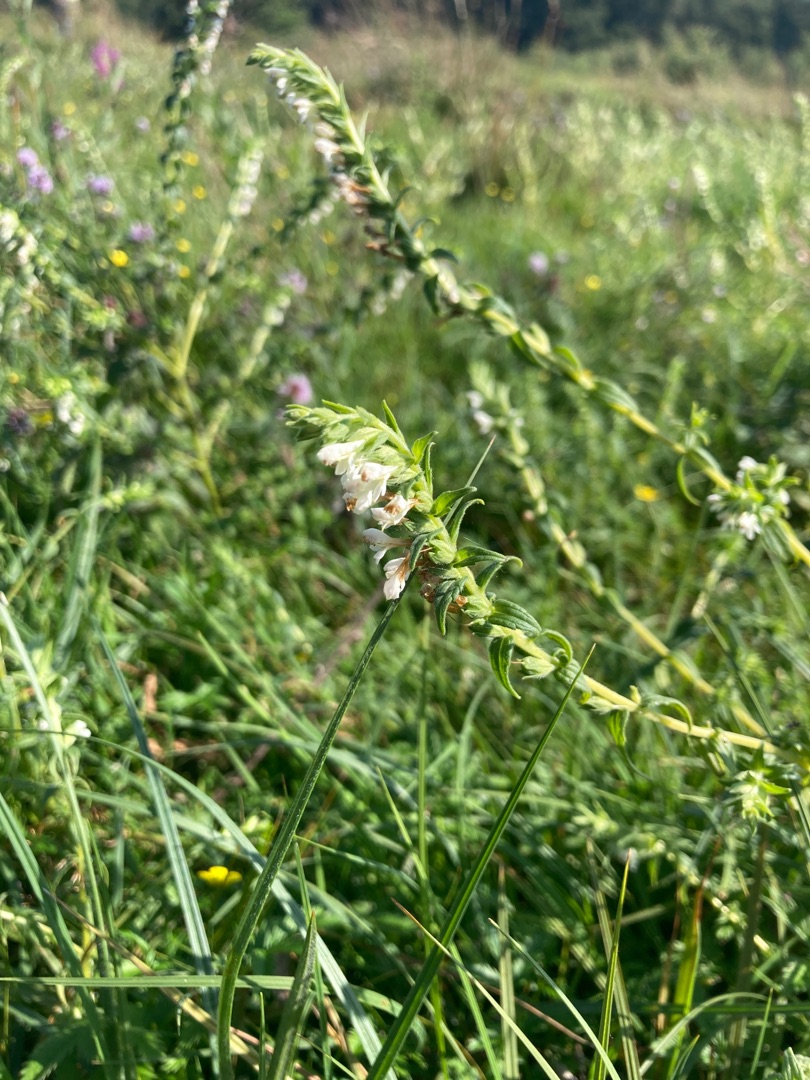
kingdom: Plantae
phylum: Tracheophyta
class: Magnoliopsida
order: Lamiales
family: Orobanchaceae
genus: Odontites
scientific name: Odontites
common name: Rødtopslægten
